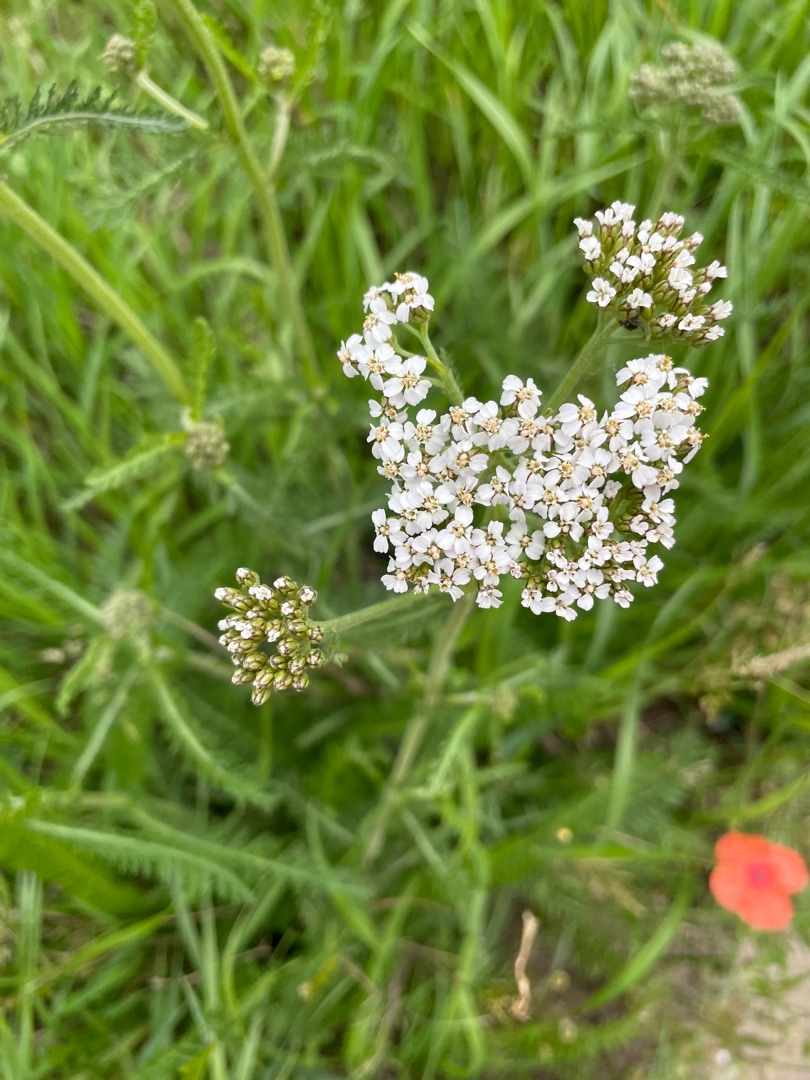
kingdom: Plantae
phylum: Tracheophyta
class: Magnoliopsida
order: Asterales
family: Asteraceae
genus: Achillea
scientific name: Achillea millefolium
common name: Almindelig røllike
